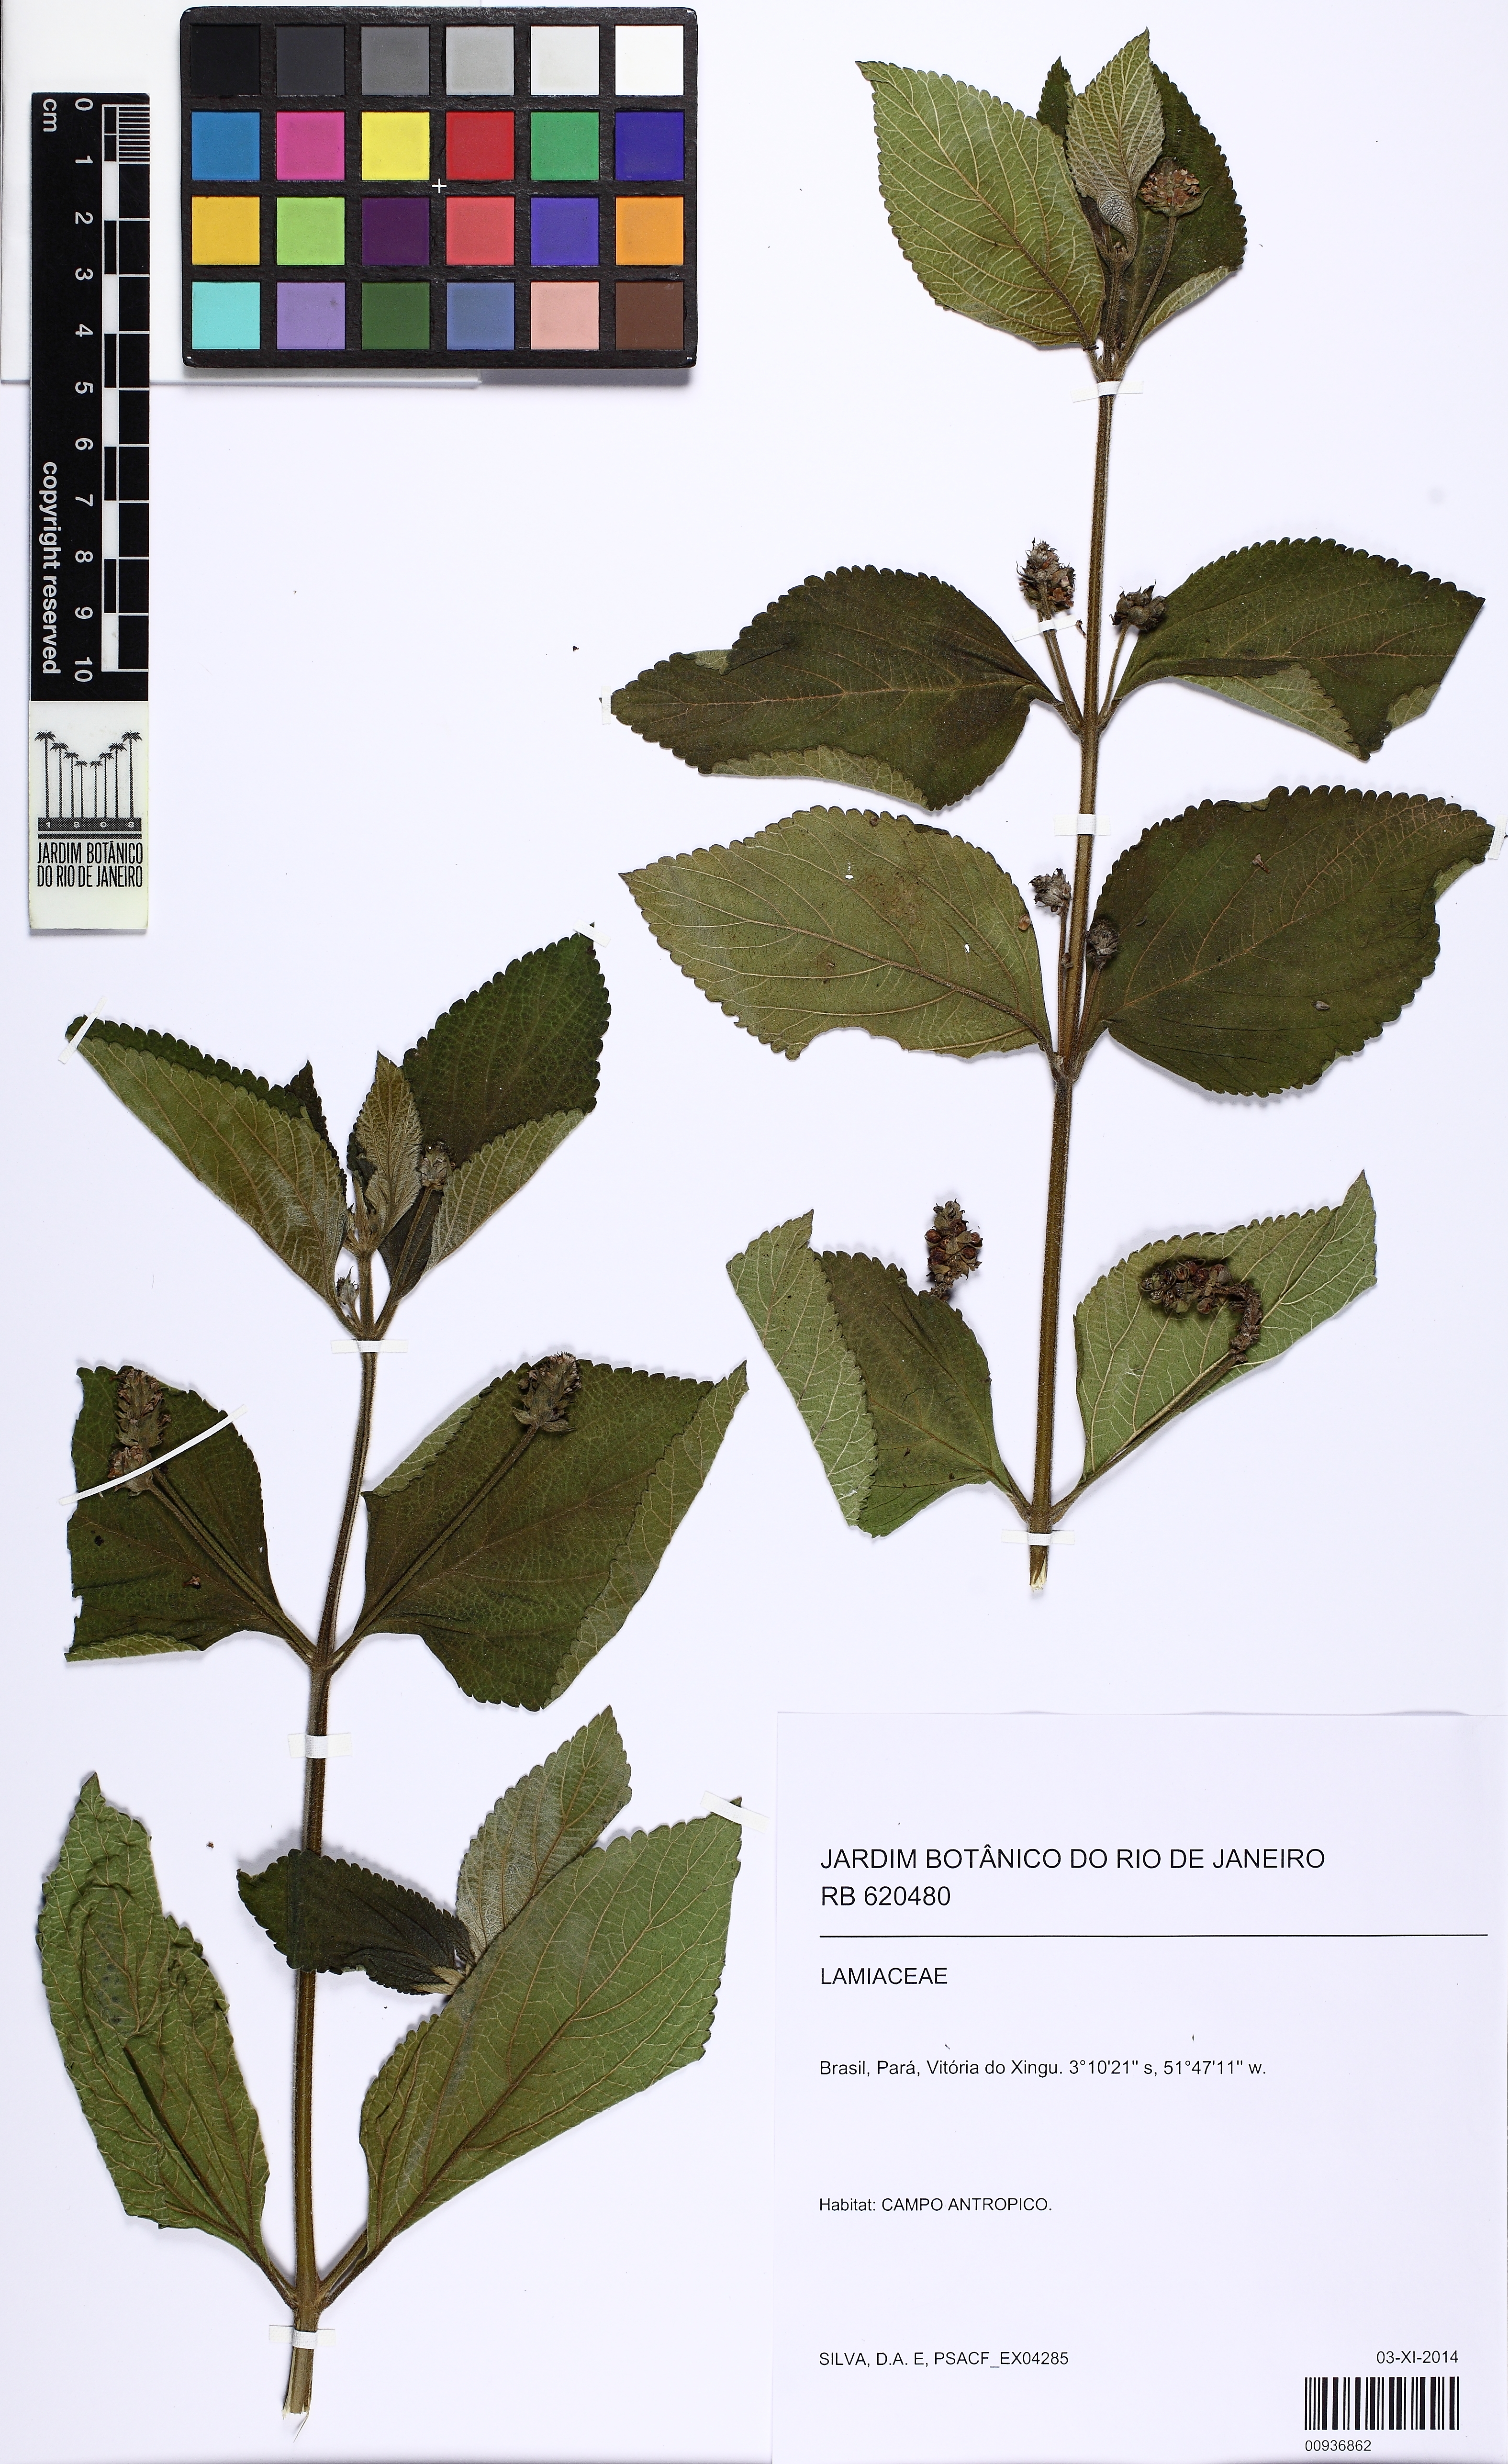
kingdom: Plantae
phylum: Tracheophyta
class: Magnoliopsida
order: Lamiales
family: Verbenaceae
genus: Lippia
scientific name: Lippia
